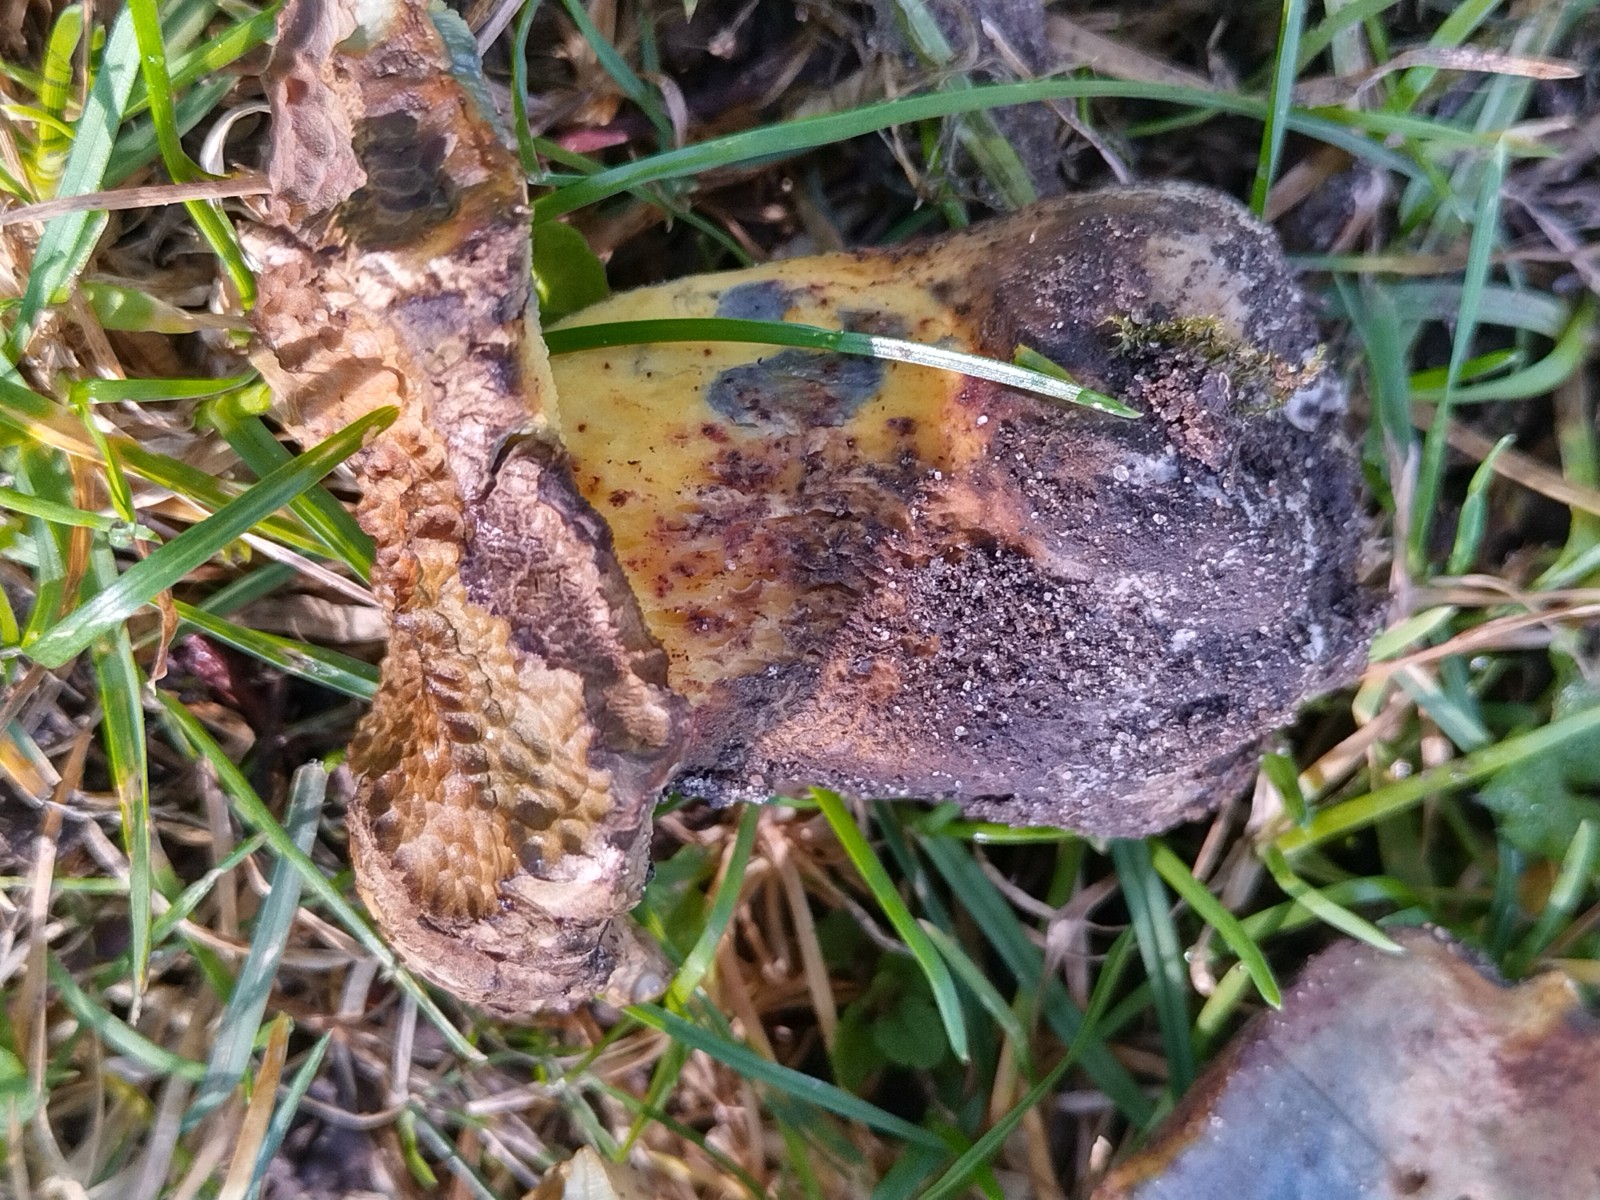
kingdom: Fungi
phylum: Basidiomycota
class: Agaricomycetes
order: Boletales
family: Boletaceae
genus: Caloboletus
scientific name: Caloboletus radicans
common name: rod-rørhat
